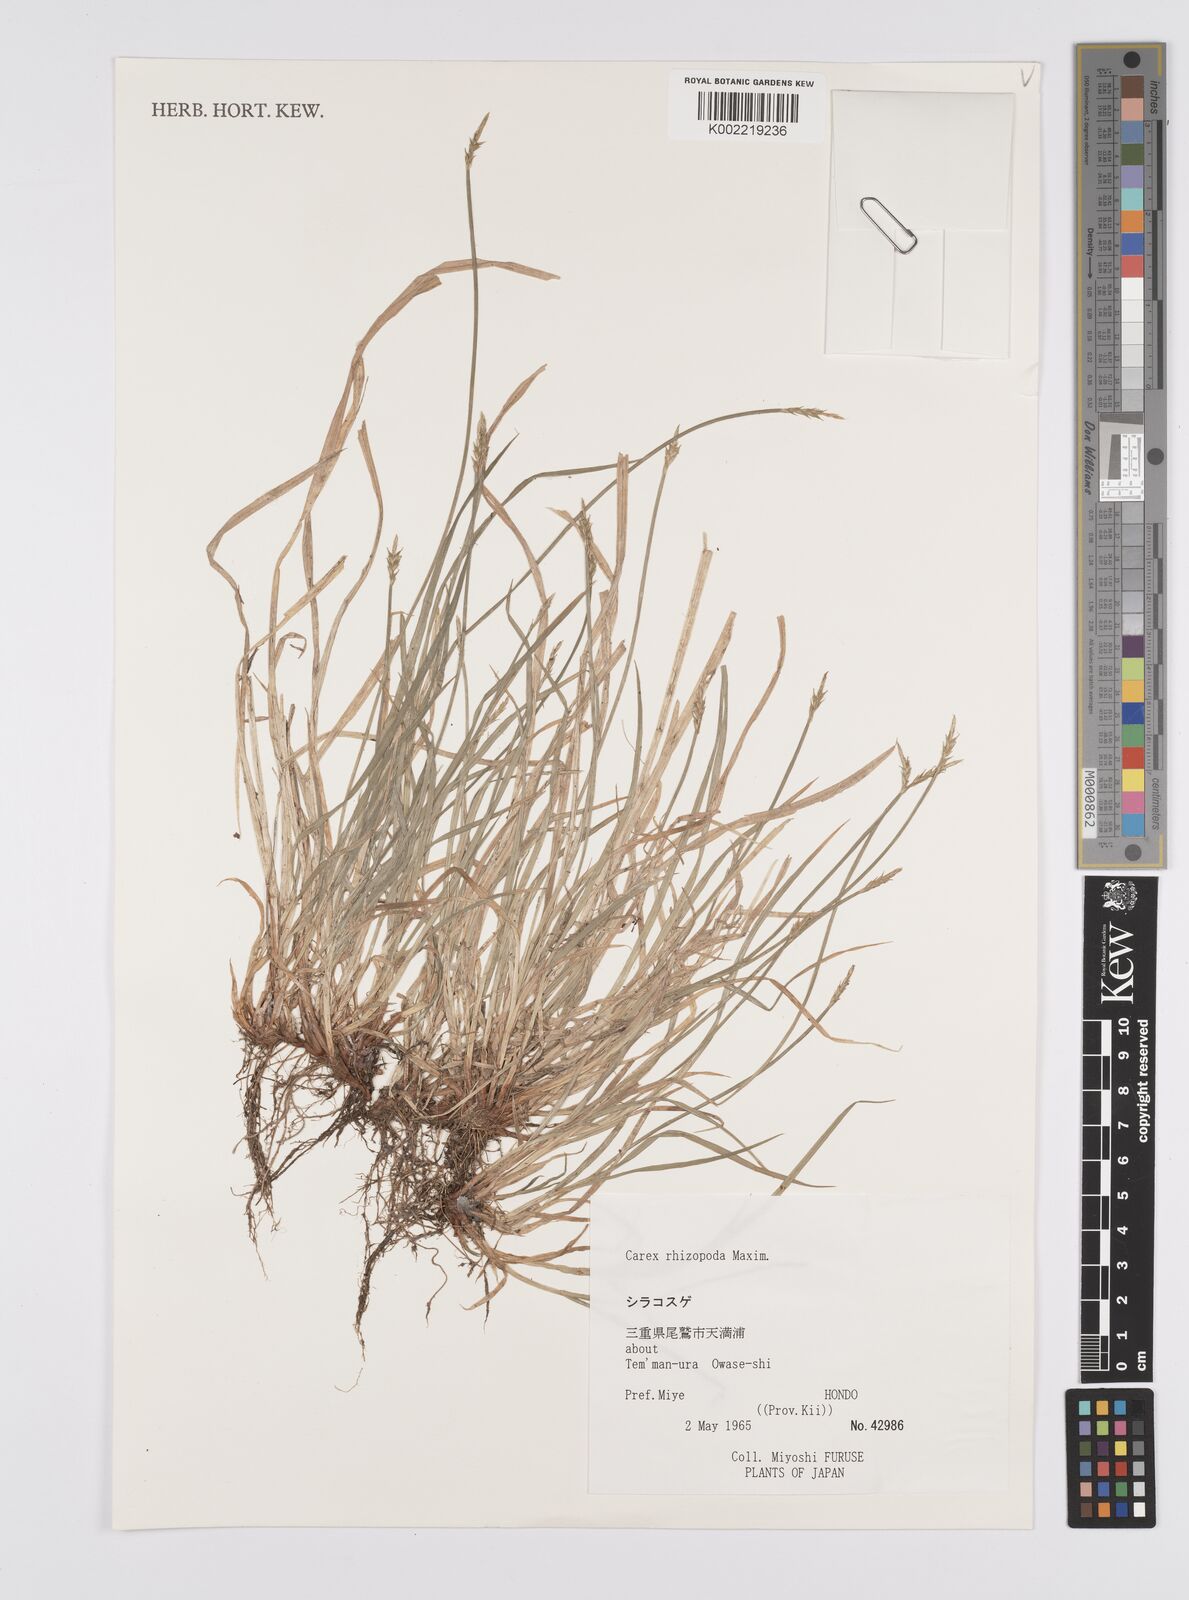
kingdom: Plantae
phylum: Tracheophyta
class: Liliopsida
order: Poales
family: Cyperaceae
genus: Carex
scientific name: Carex rhizopoda
